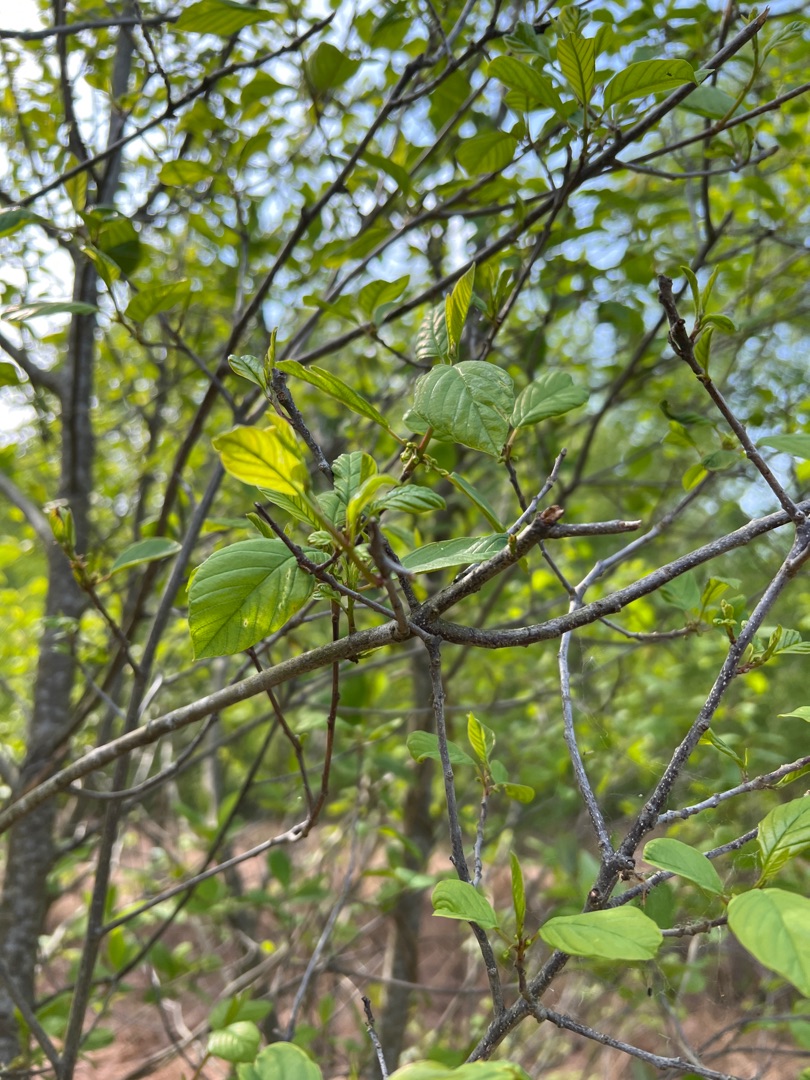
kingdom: Plantae
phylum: Tracheophyta
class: Magnoliopsida
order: Rosales
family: Rhamnaceae
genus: Frangula
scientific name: Frangula alnus
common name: Tørst
